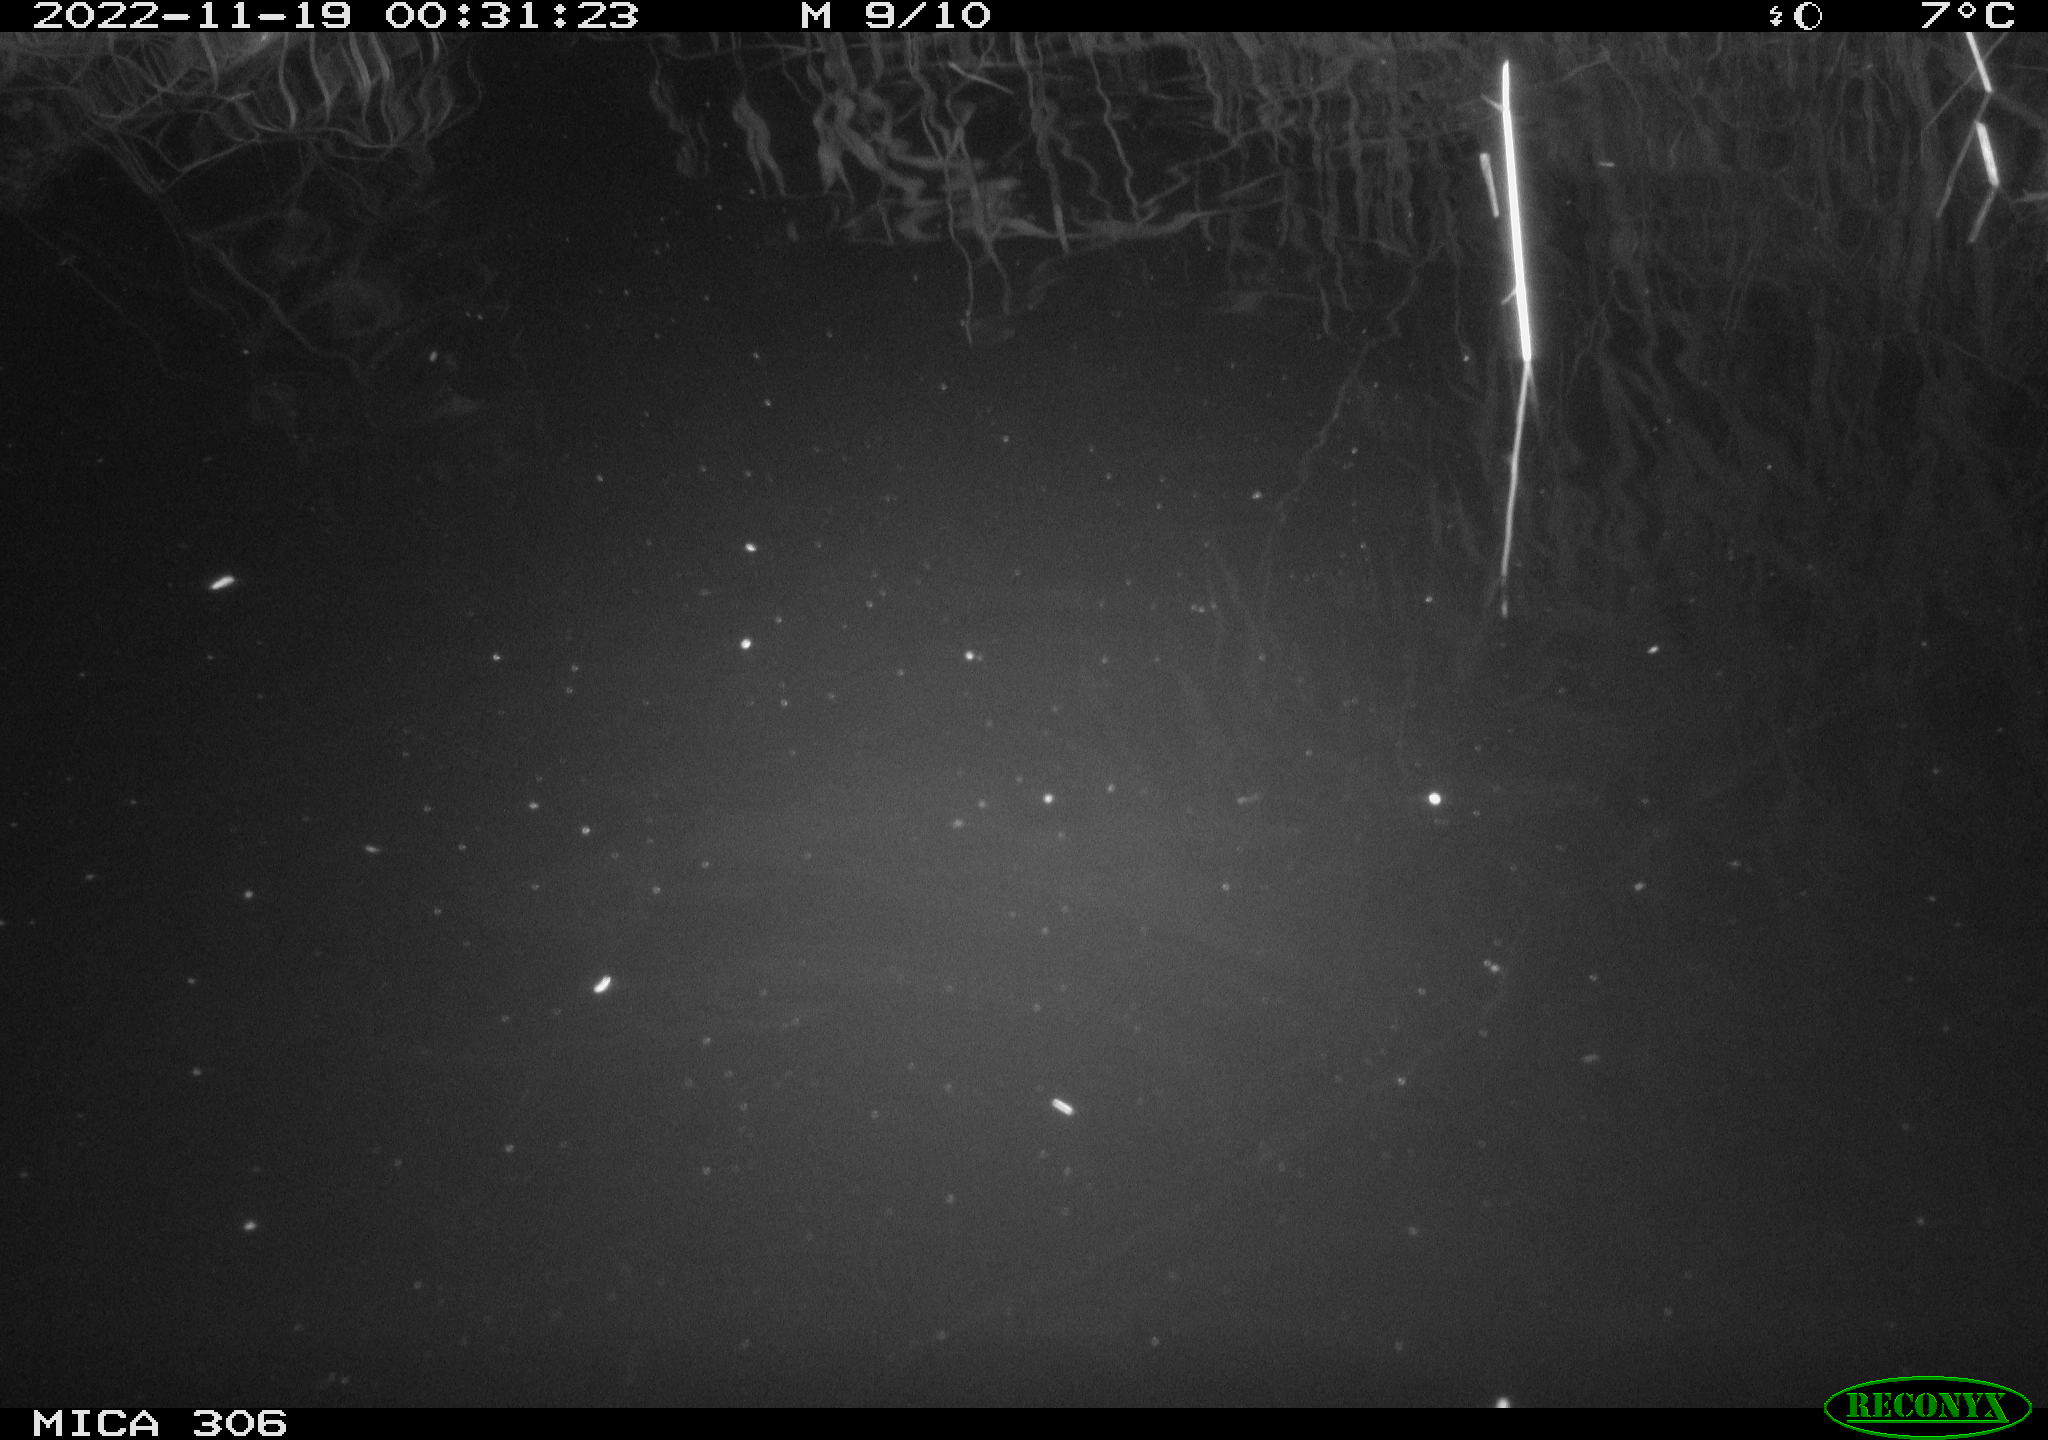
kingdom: Animalia
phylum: Chordata
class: Mammalia
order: Rodentia
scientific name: Rodentia
